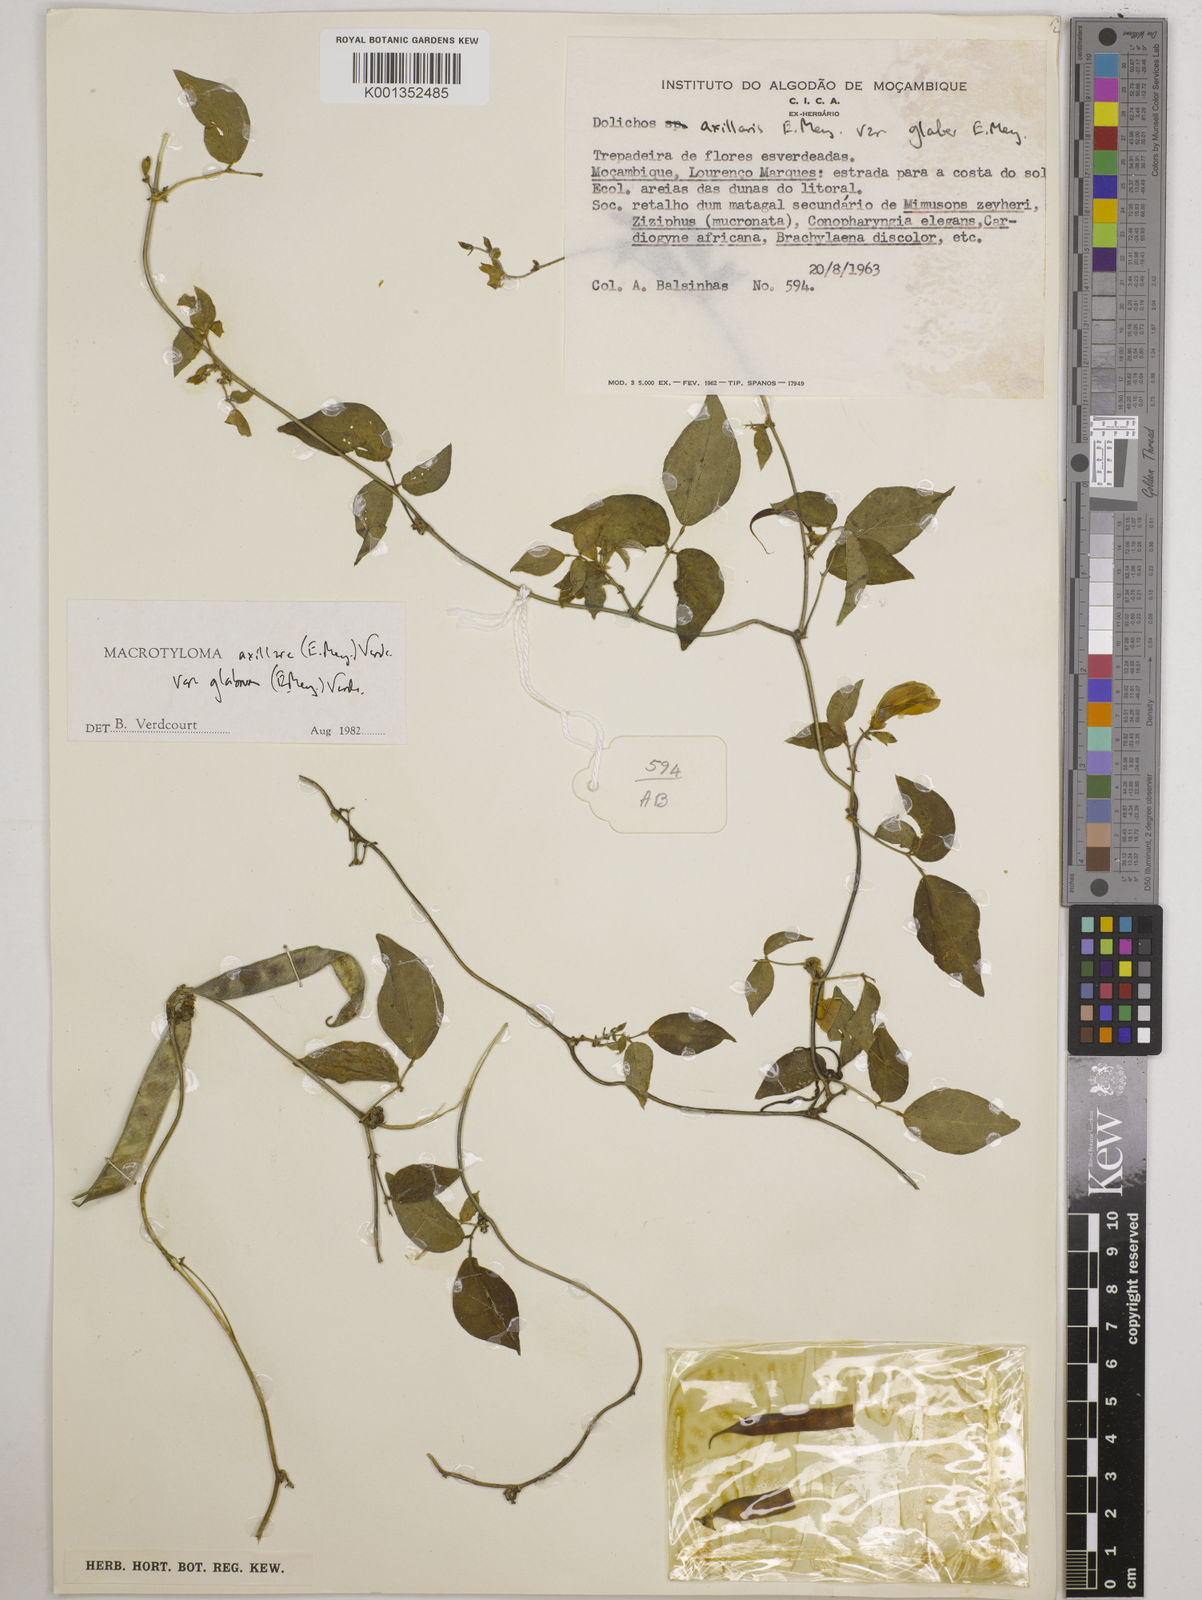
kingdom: Plantae
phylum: Tracheophyta
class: Magnoliopsida
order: Fabales
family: Fabaceae
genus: Macrotyloma
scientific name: Macrotyloma
